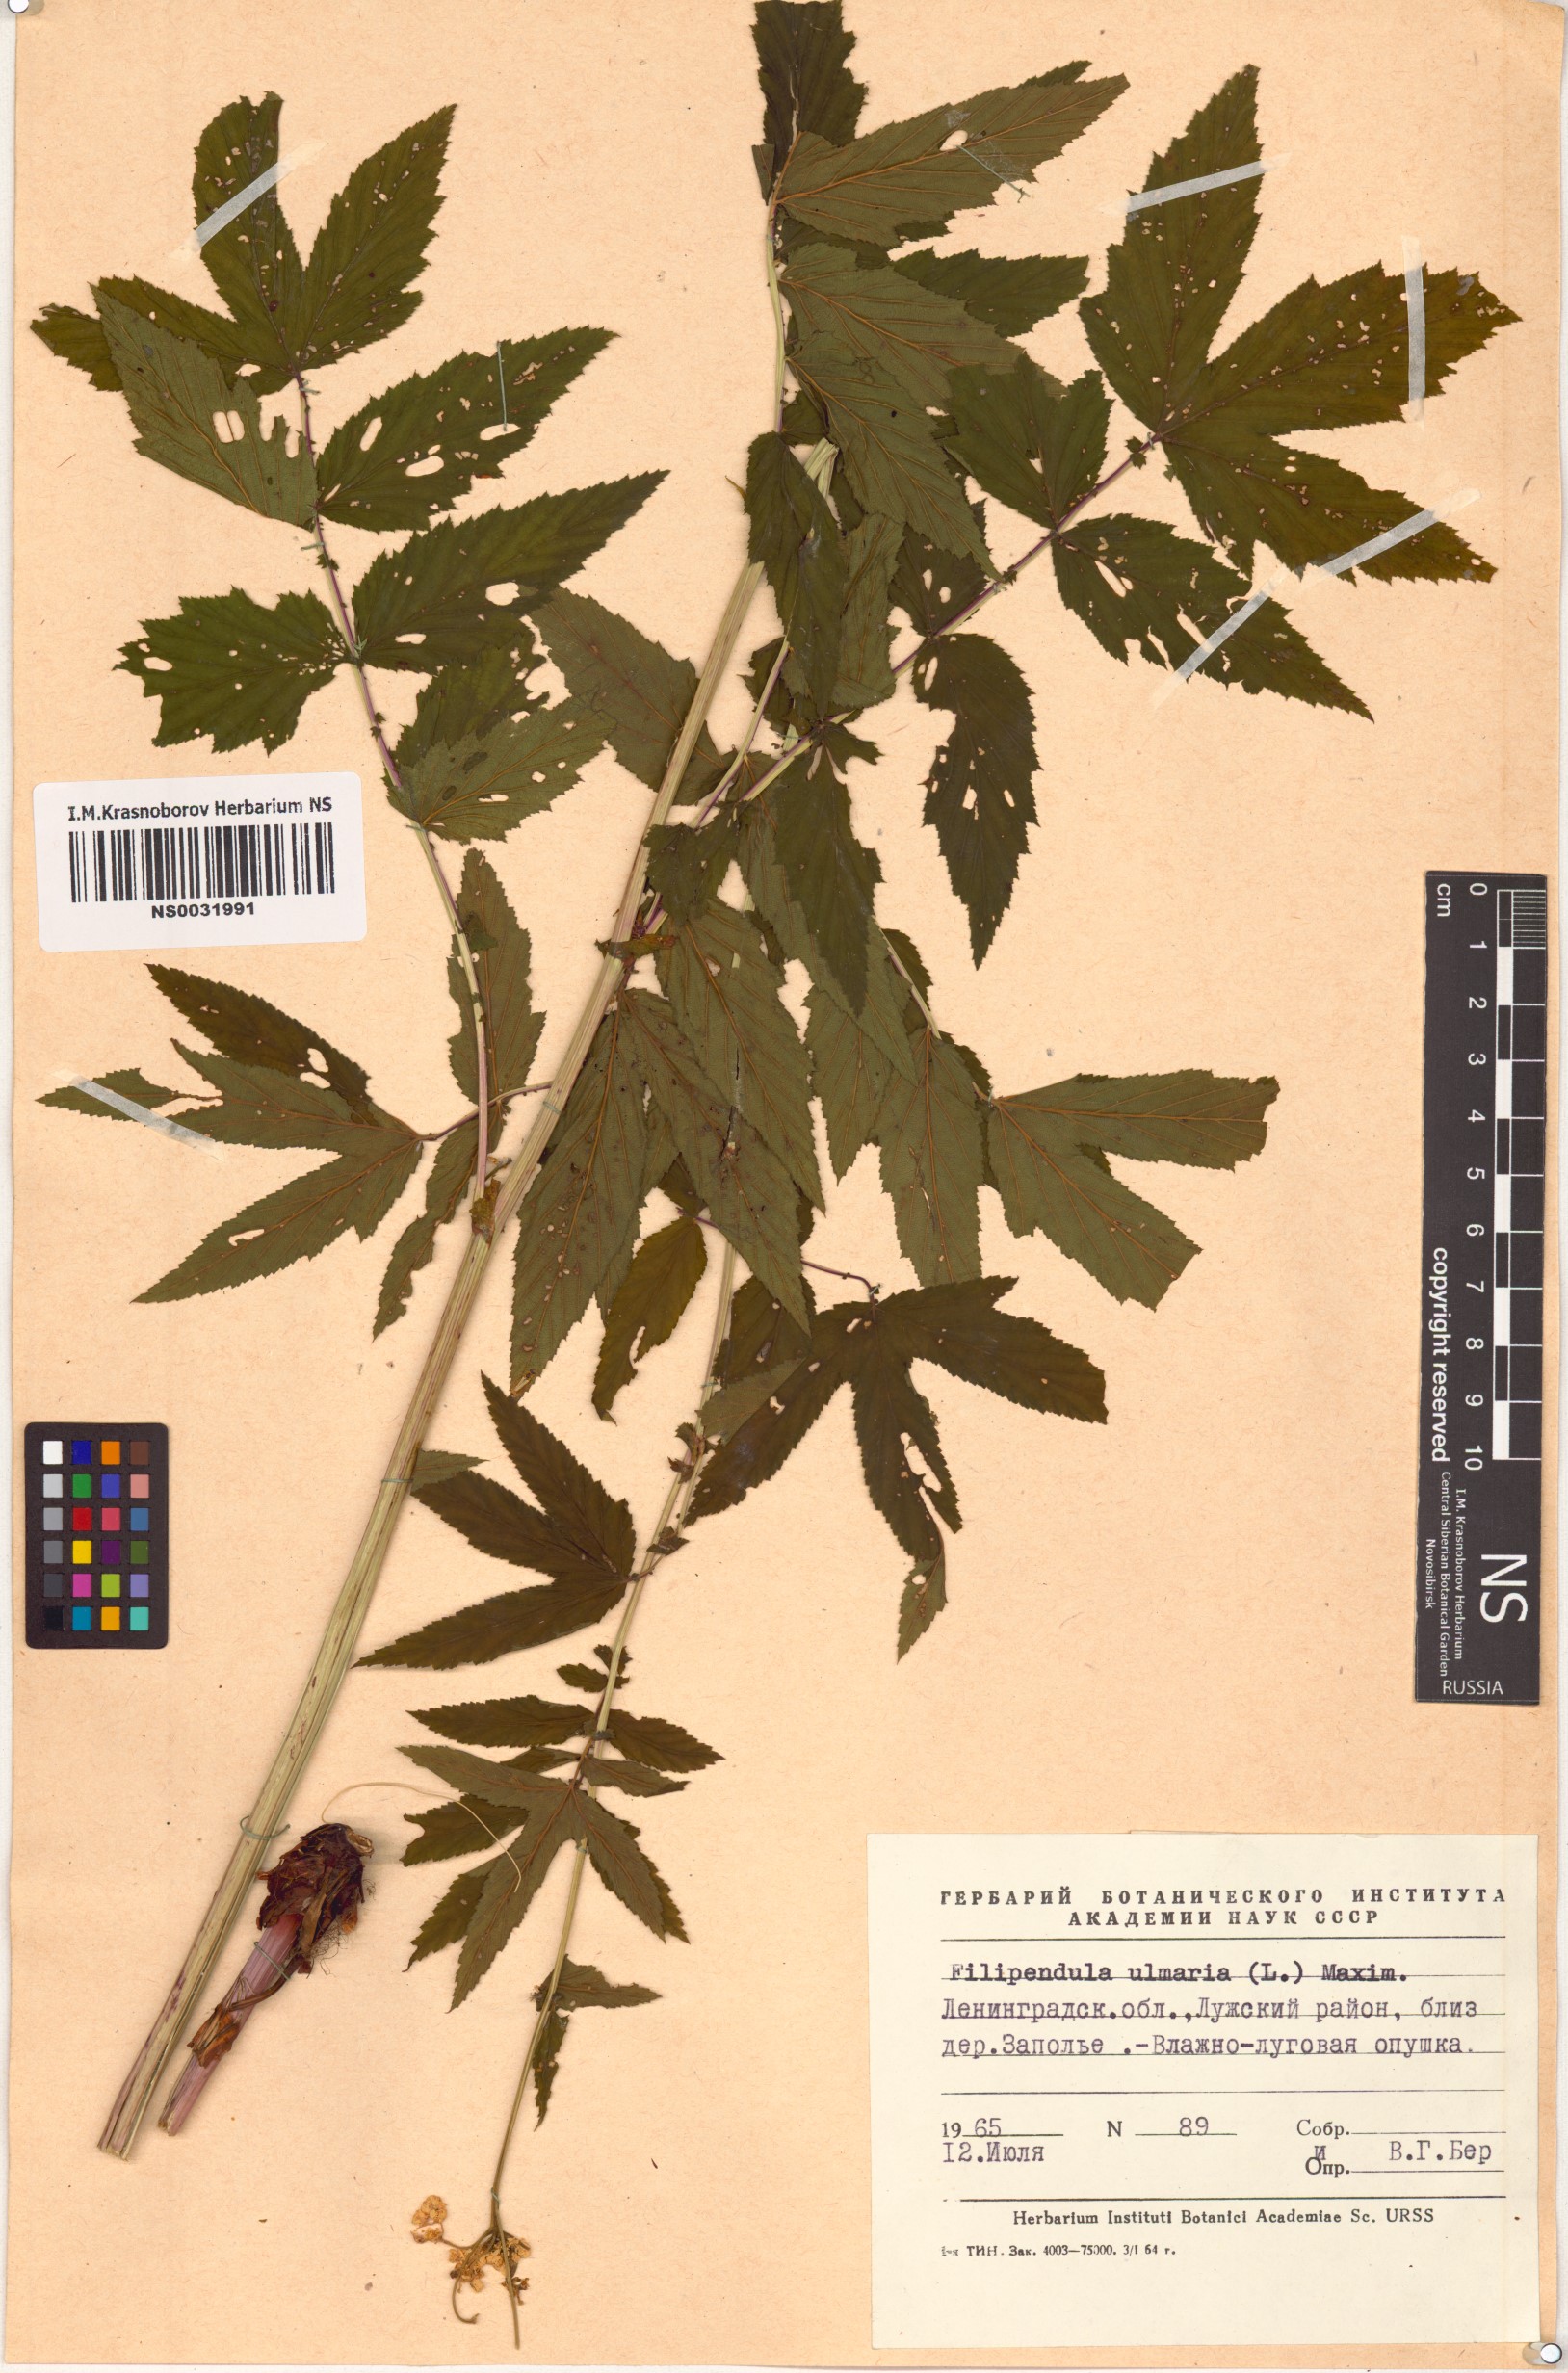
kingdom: Plantae
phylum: Tracheophyta
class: Magnoliopsida
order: Rosales
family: Rosaceae
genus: Filipendula
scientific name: Filipendula ulmaria
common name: Meadowsweet
